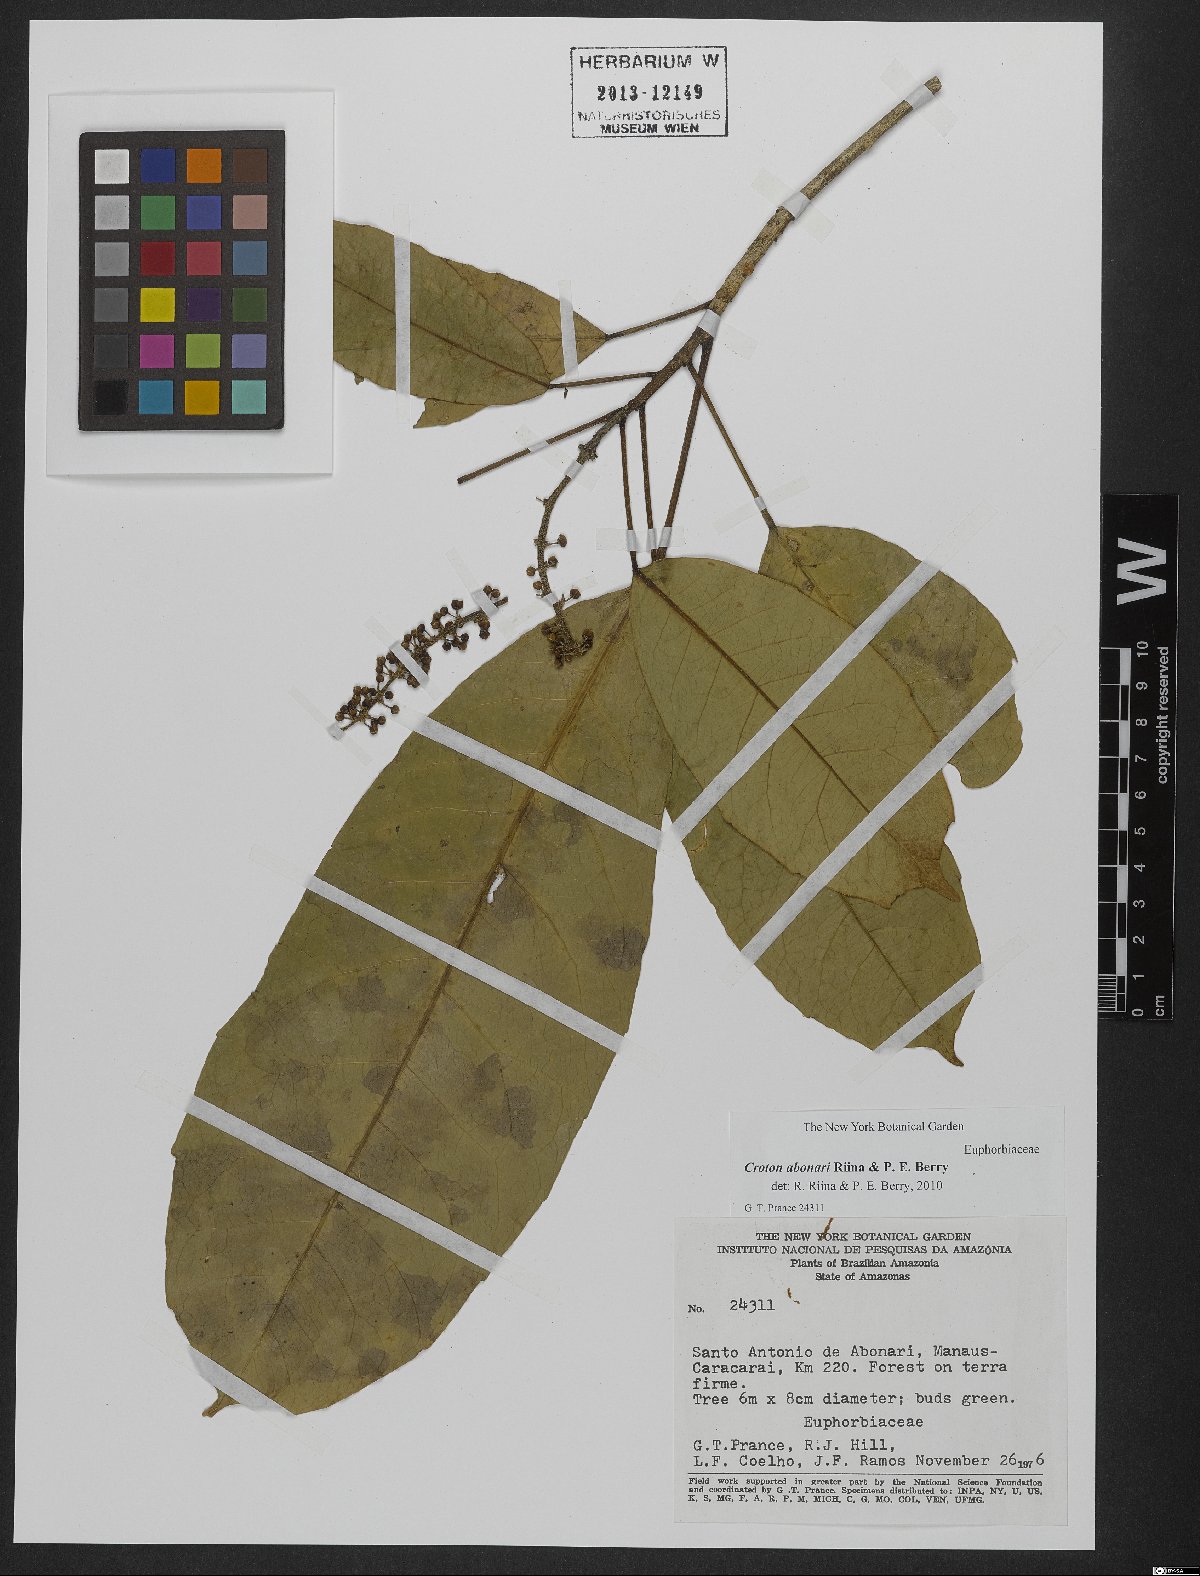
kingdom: Plantae
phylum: Tracheophyta
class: Magnoliopsida
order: Malpighiales
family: Euphorbiaceae
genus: Croton
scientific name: Croton abonari
